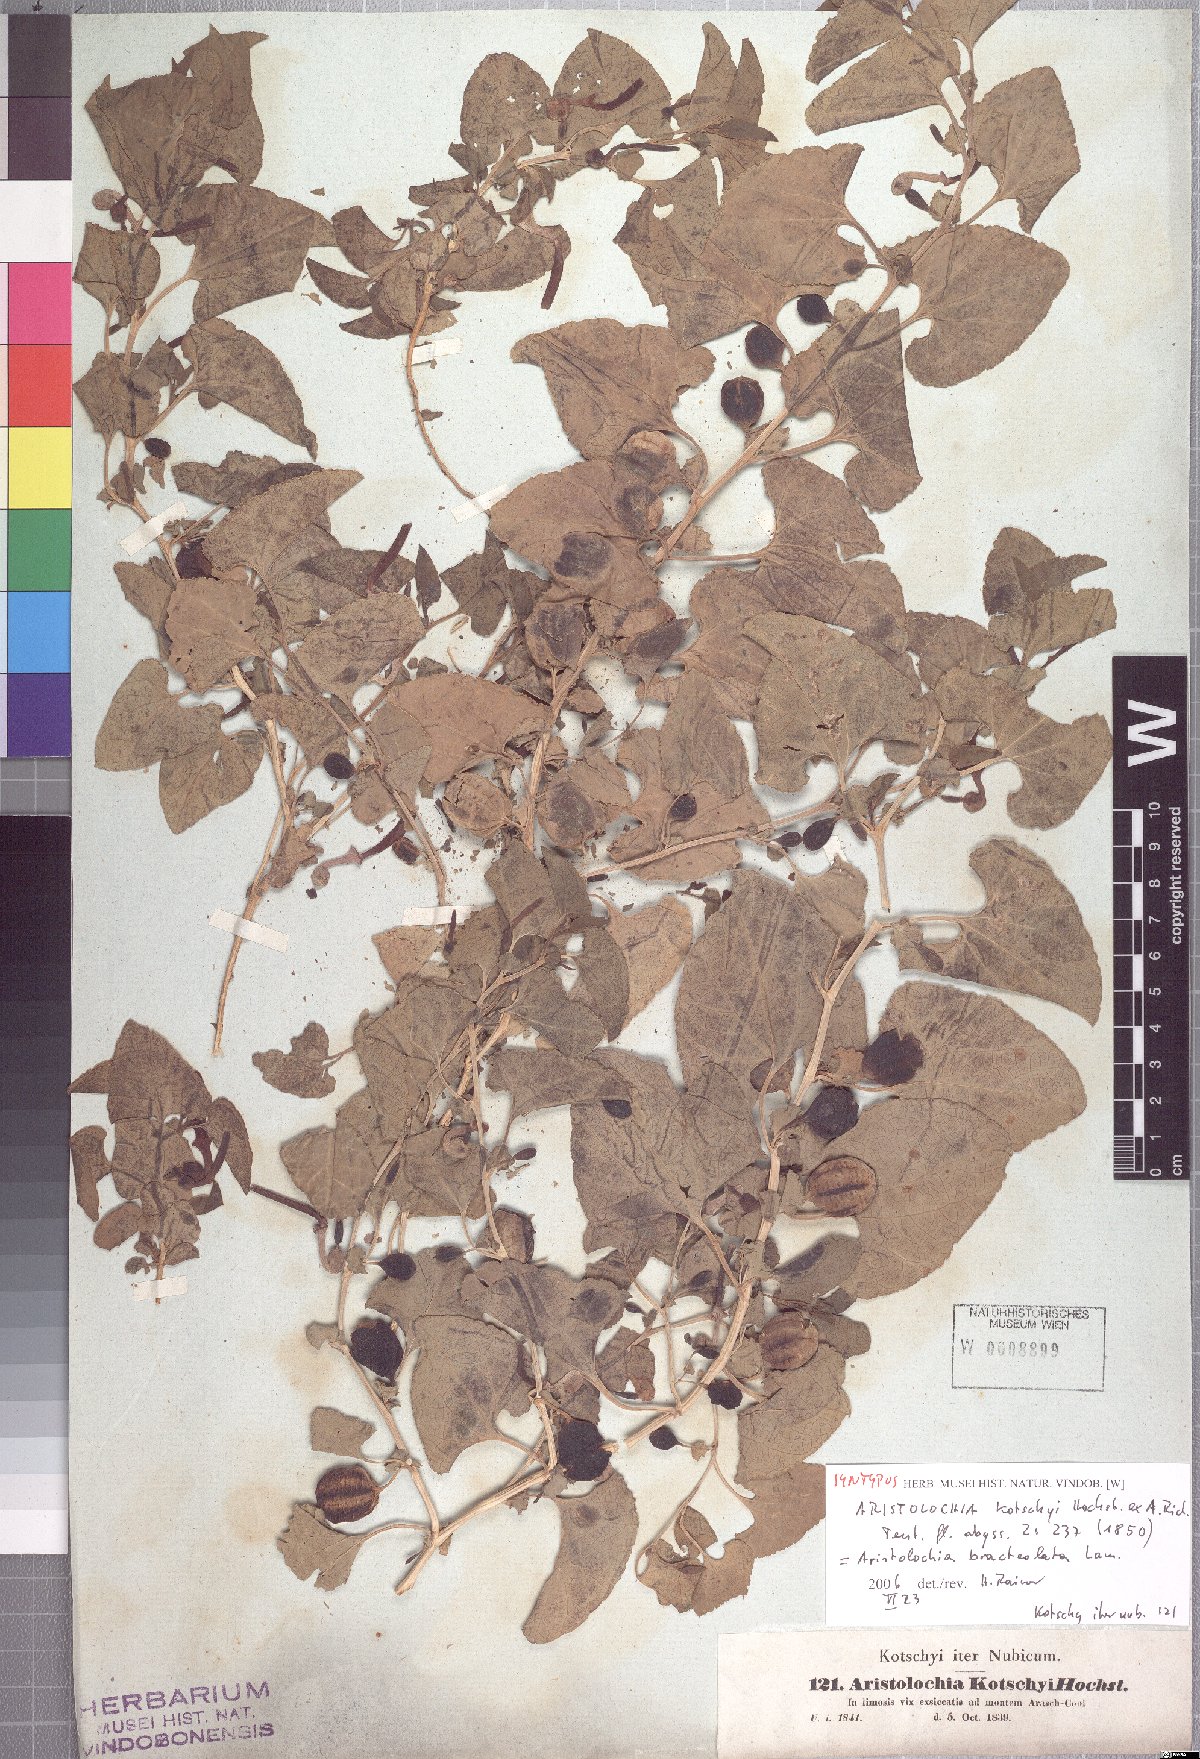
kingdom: Plantae
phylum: Tracheophyta
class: Magnoliopsida
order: Piperales
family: Aristolochiaceae
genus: Aristolochia
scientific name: Aristolochia bracteolata
